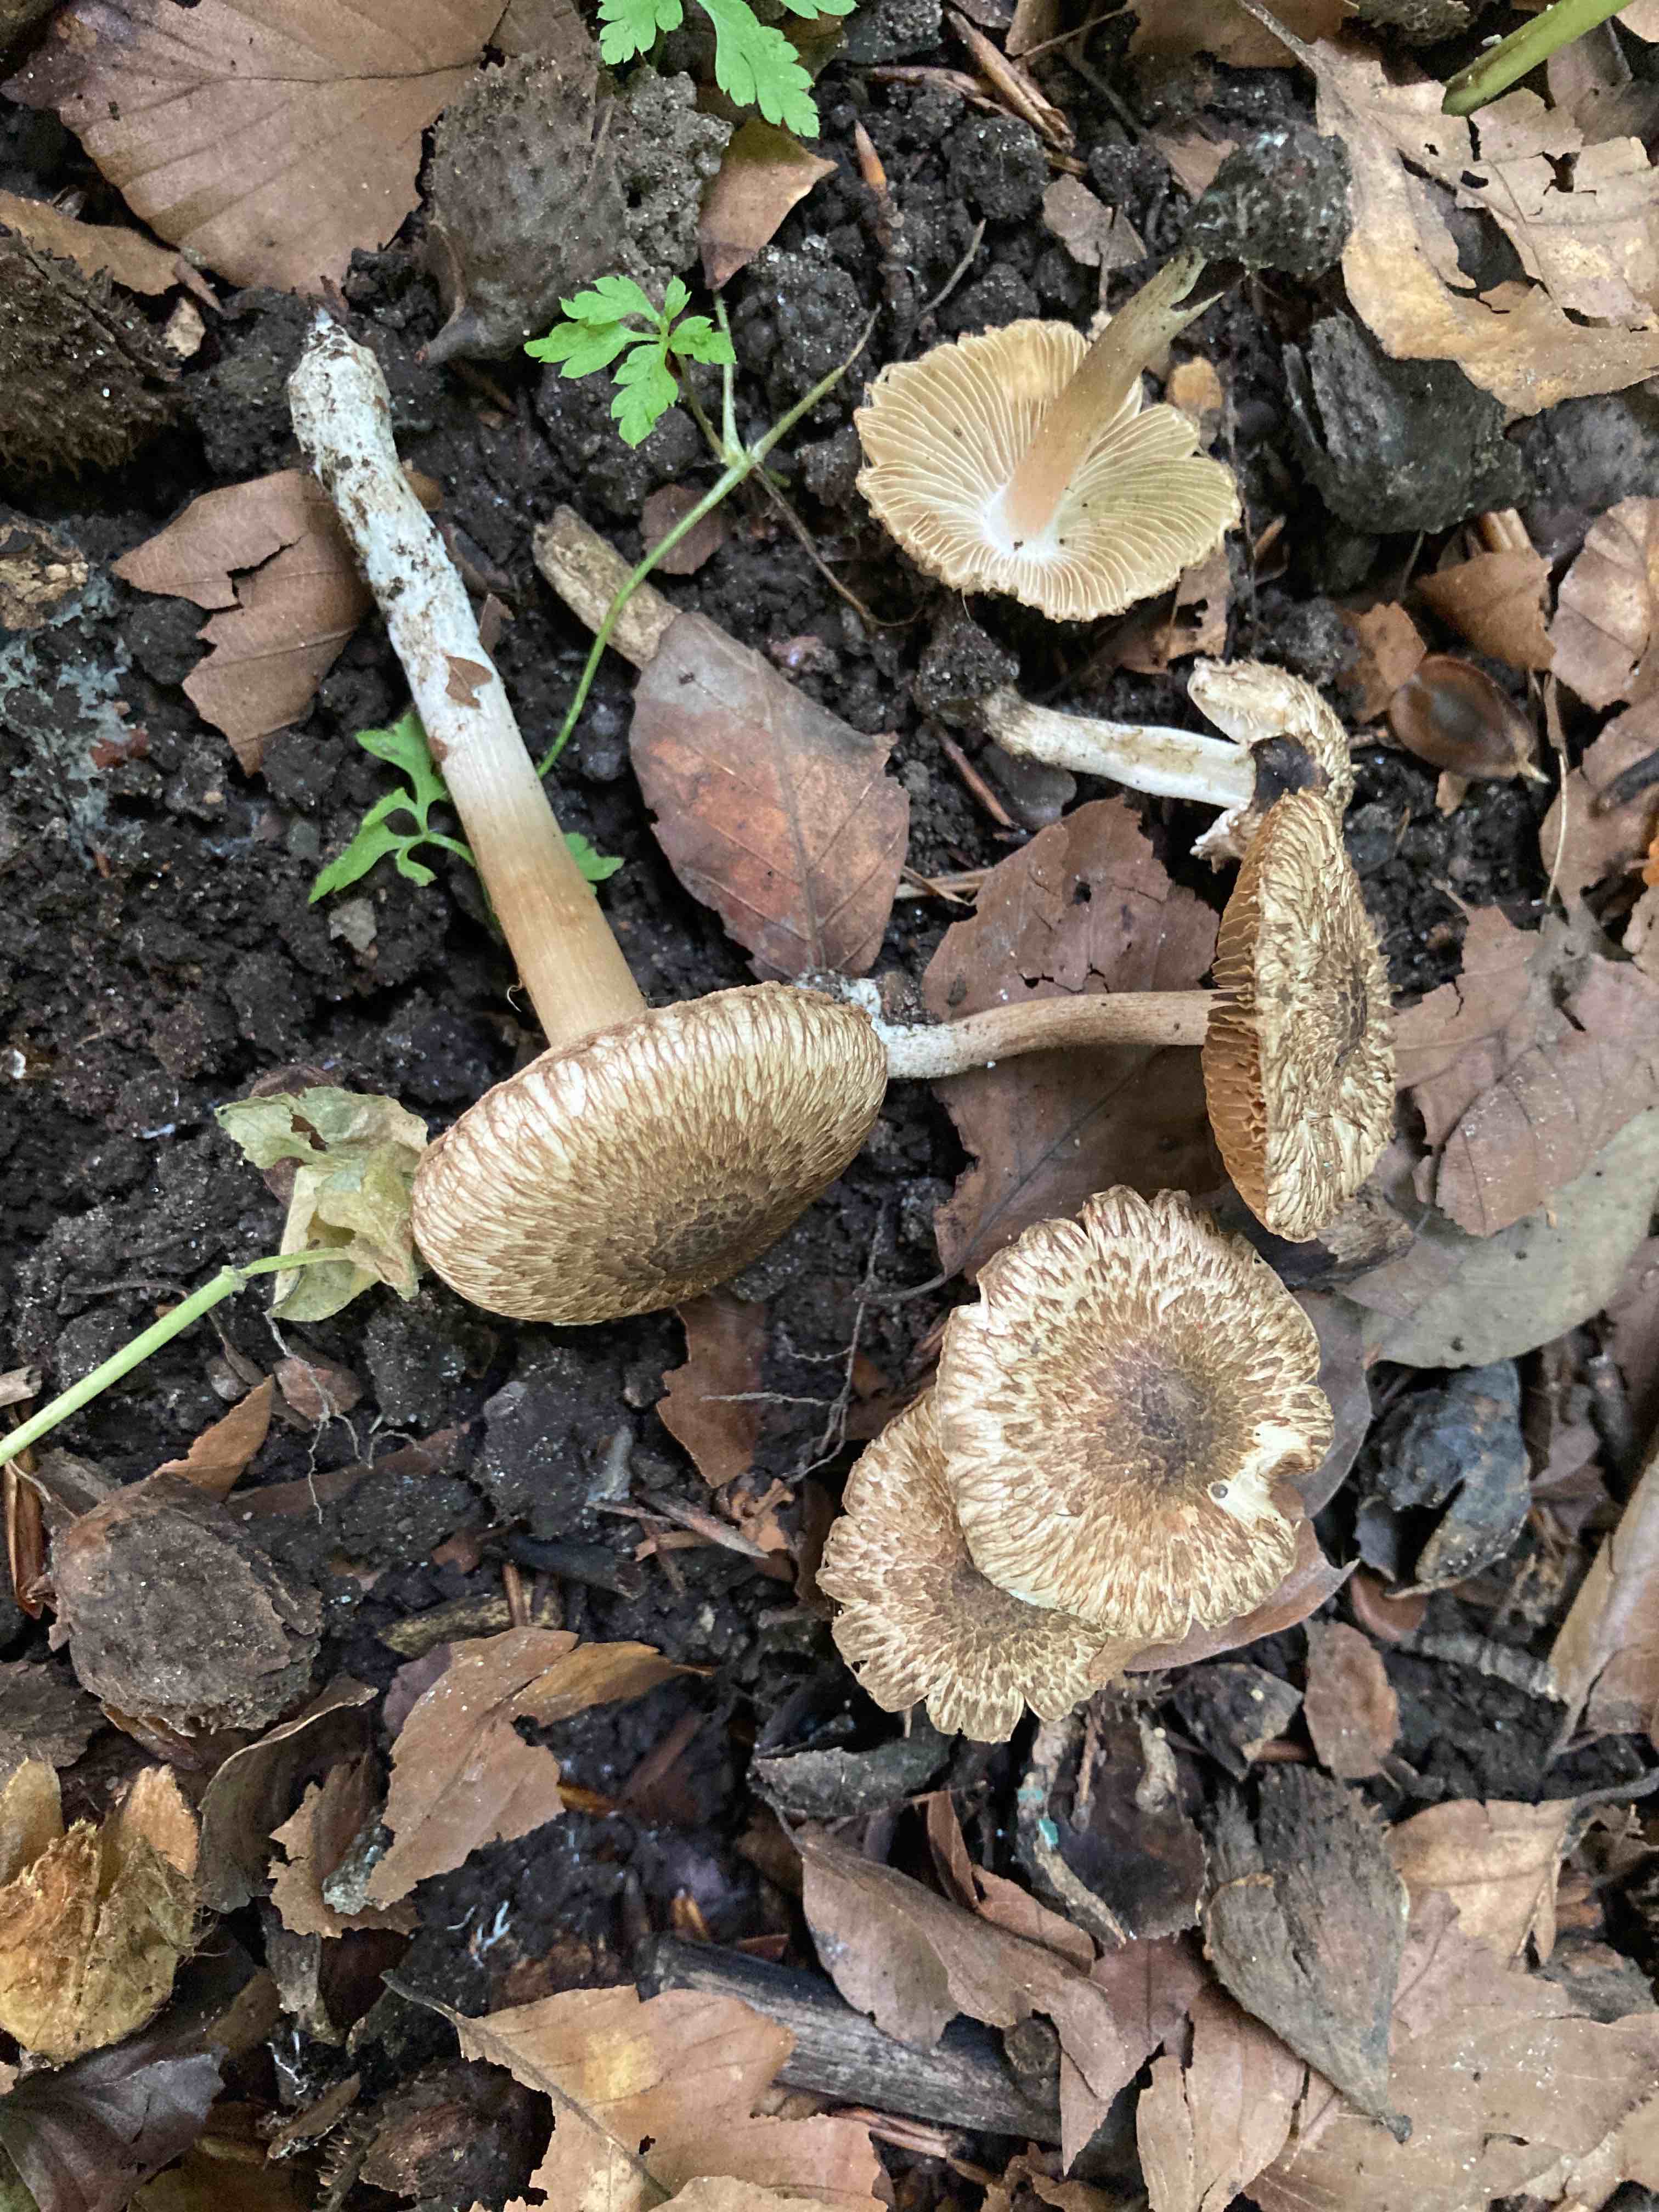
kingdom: Fungi
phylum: Basidiomycota
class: Agaricomycetes
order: Agaricales
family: Inocybaceae
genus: Inocybe
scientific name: Inocybe erinaceomorpha
